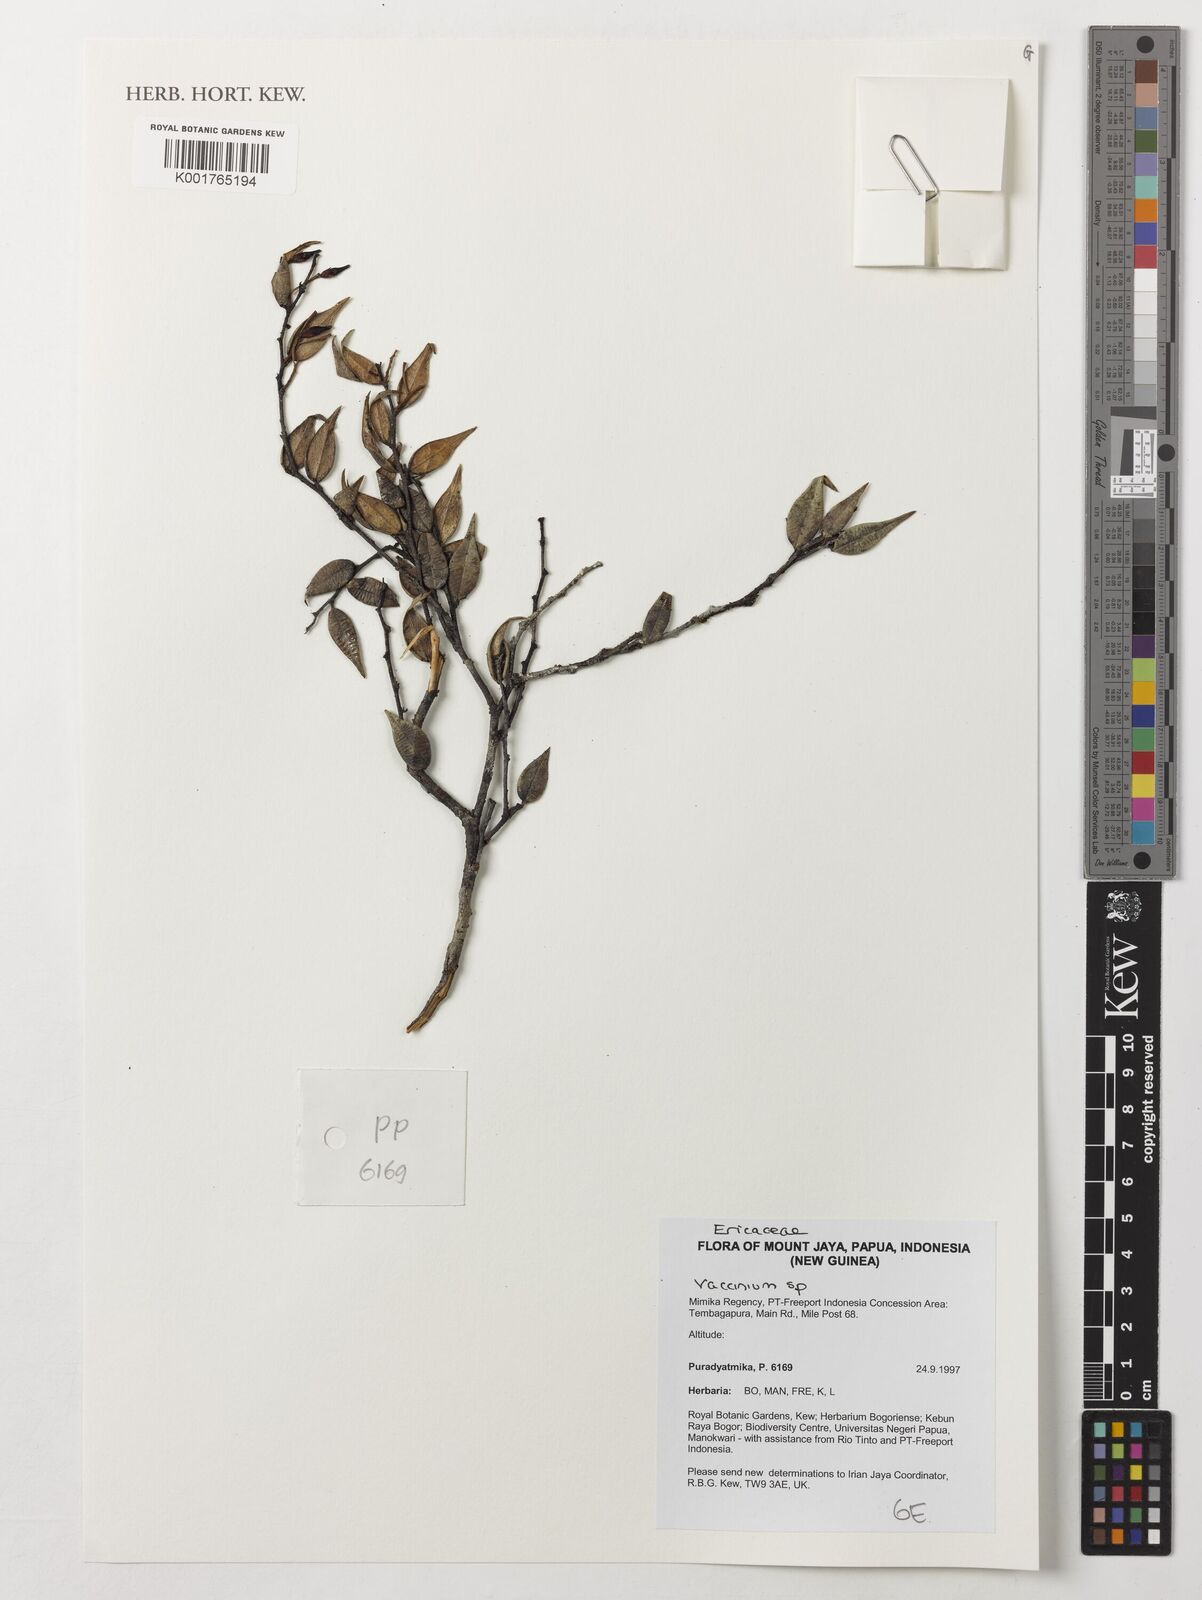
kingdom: Plantae
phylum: Tracheophyta
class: Magnoliopsida
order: Ericales
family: Ericaceae
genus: Vaccinium
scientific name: Vaccinium
